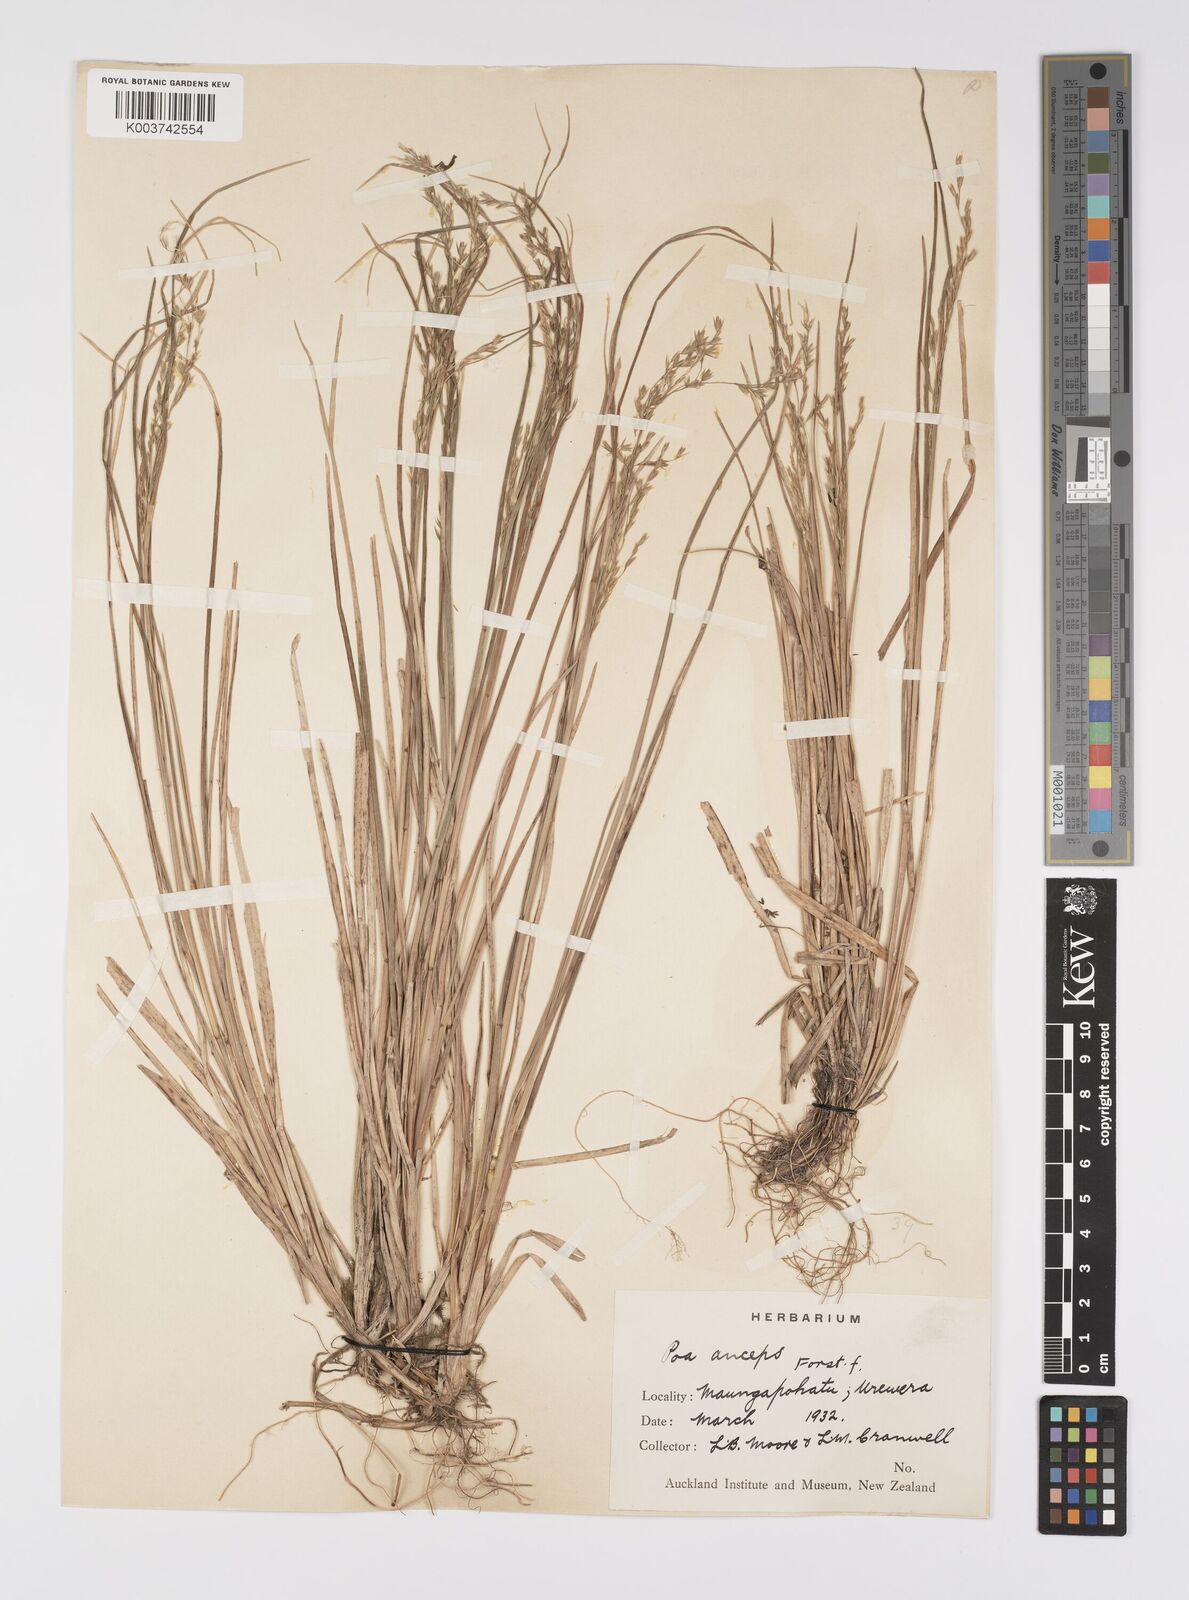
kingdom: Plantae
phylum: Tracheophyta
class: Liliopsida
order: Poales
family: Poaceae
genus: Poa
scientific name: Poa anceps
